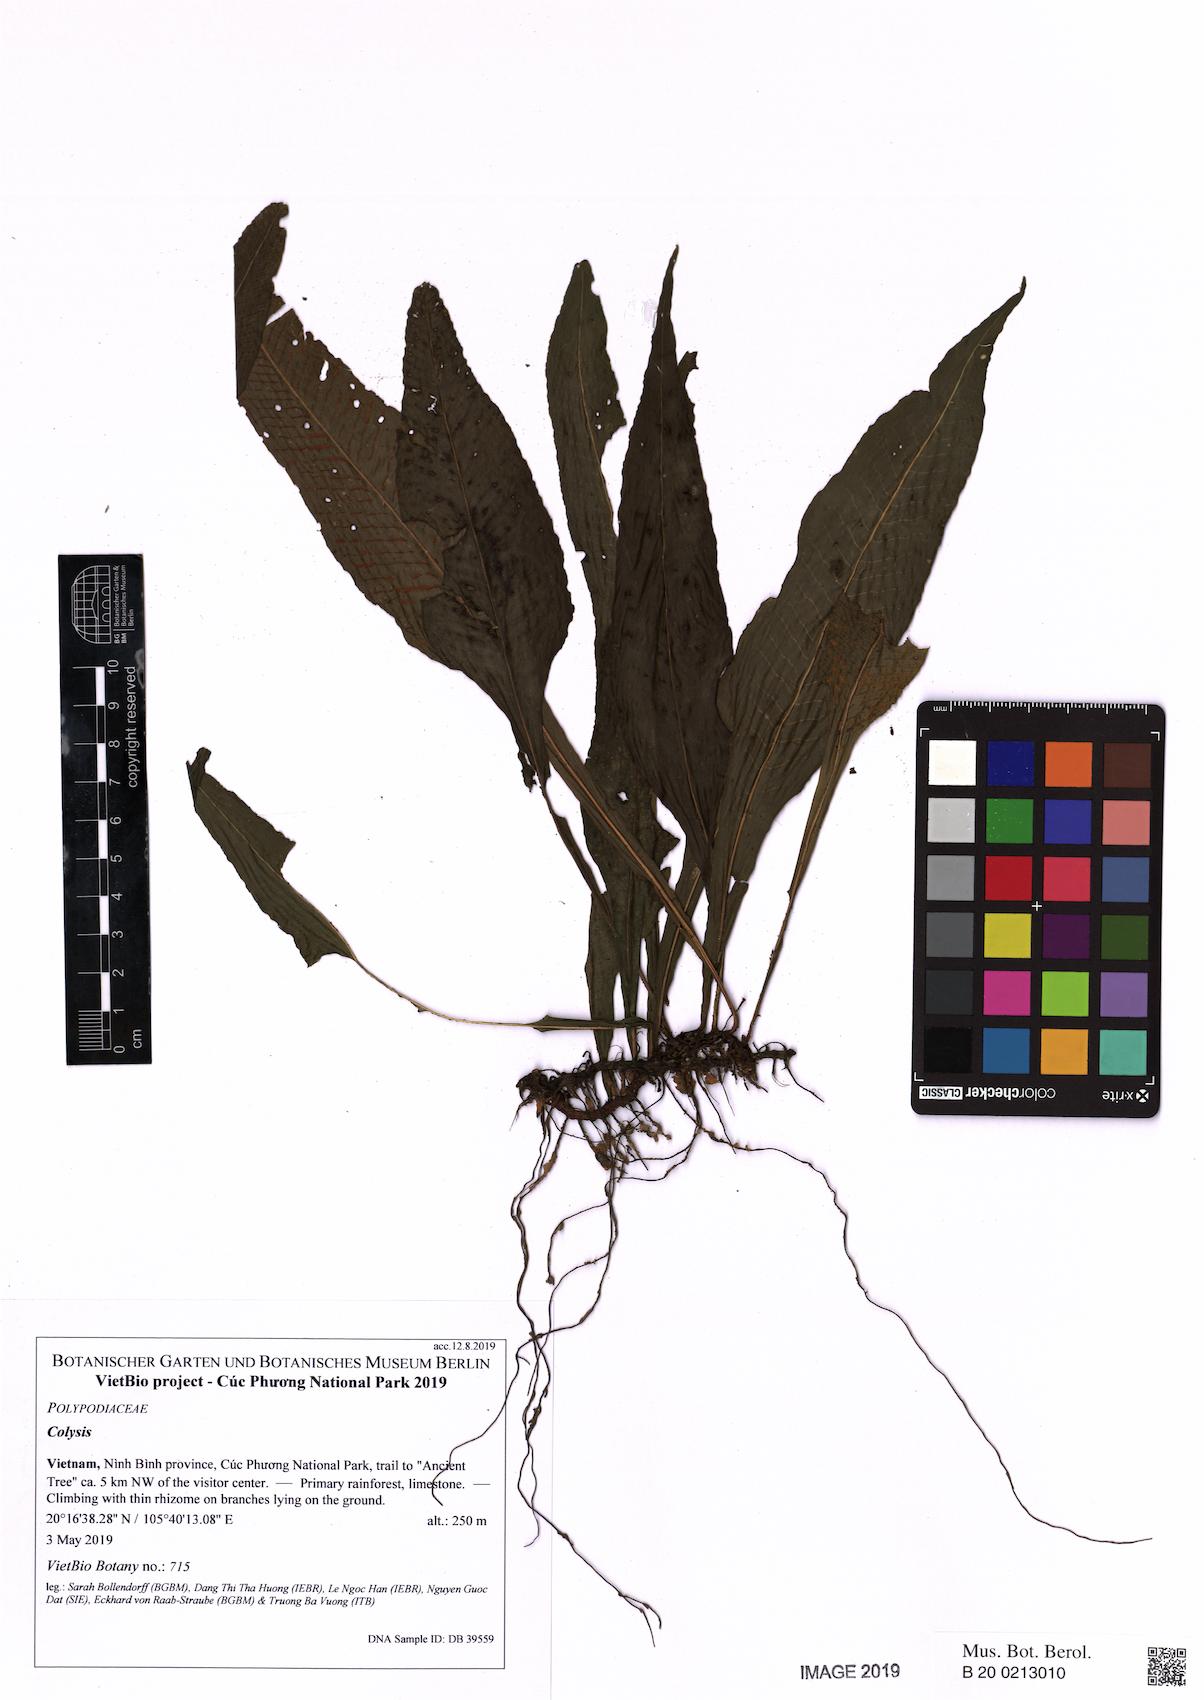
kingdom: Plantae
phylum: Tracheophyta
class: Polypodiopsida
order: Polypodiales
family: Polypodiaceae
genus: Leptochilus
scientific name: Leptochilus
